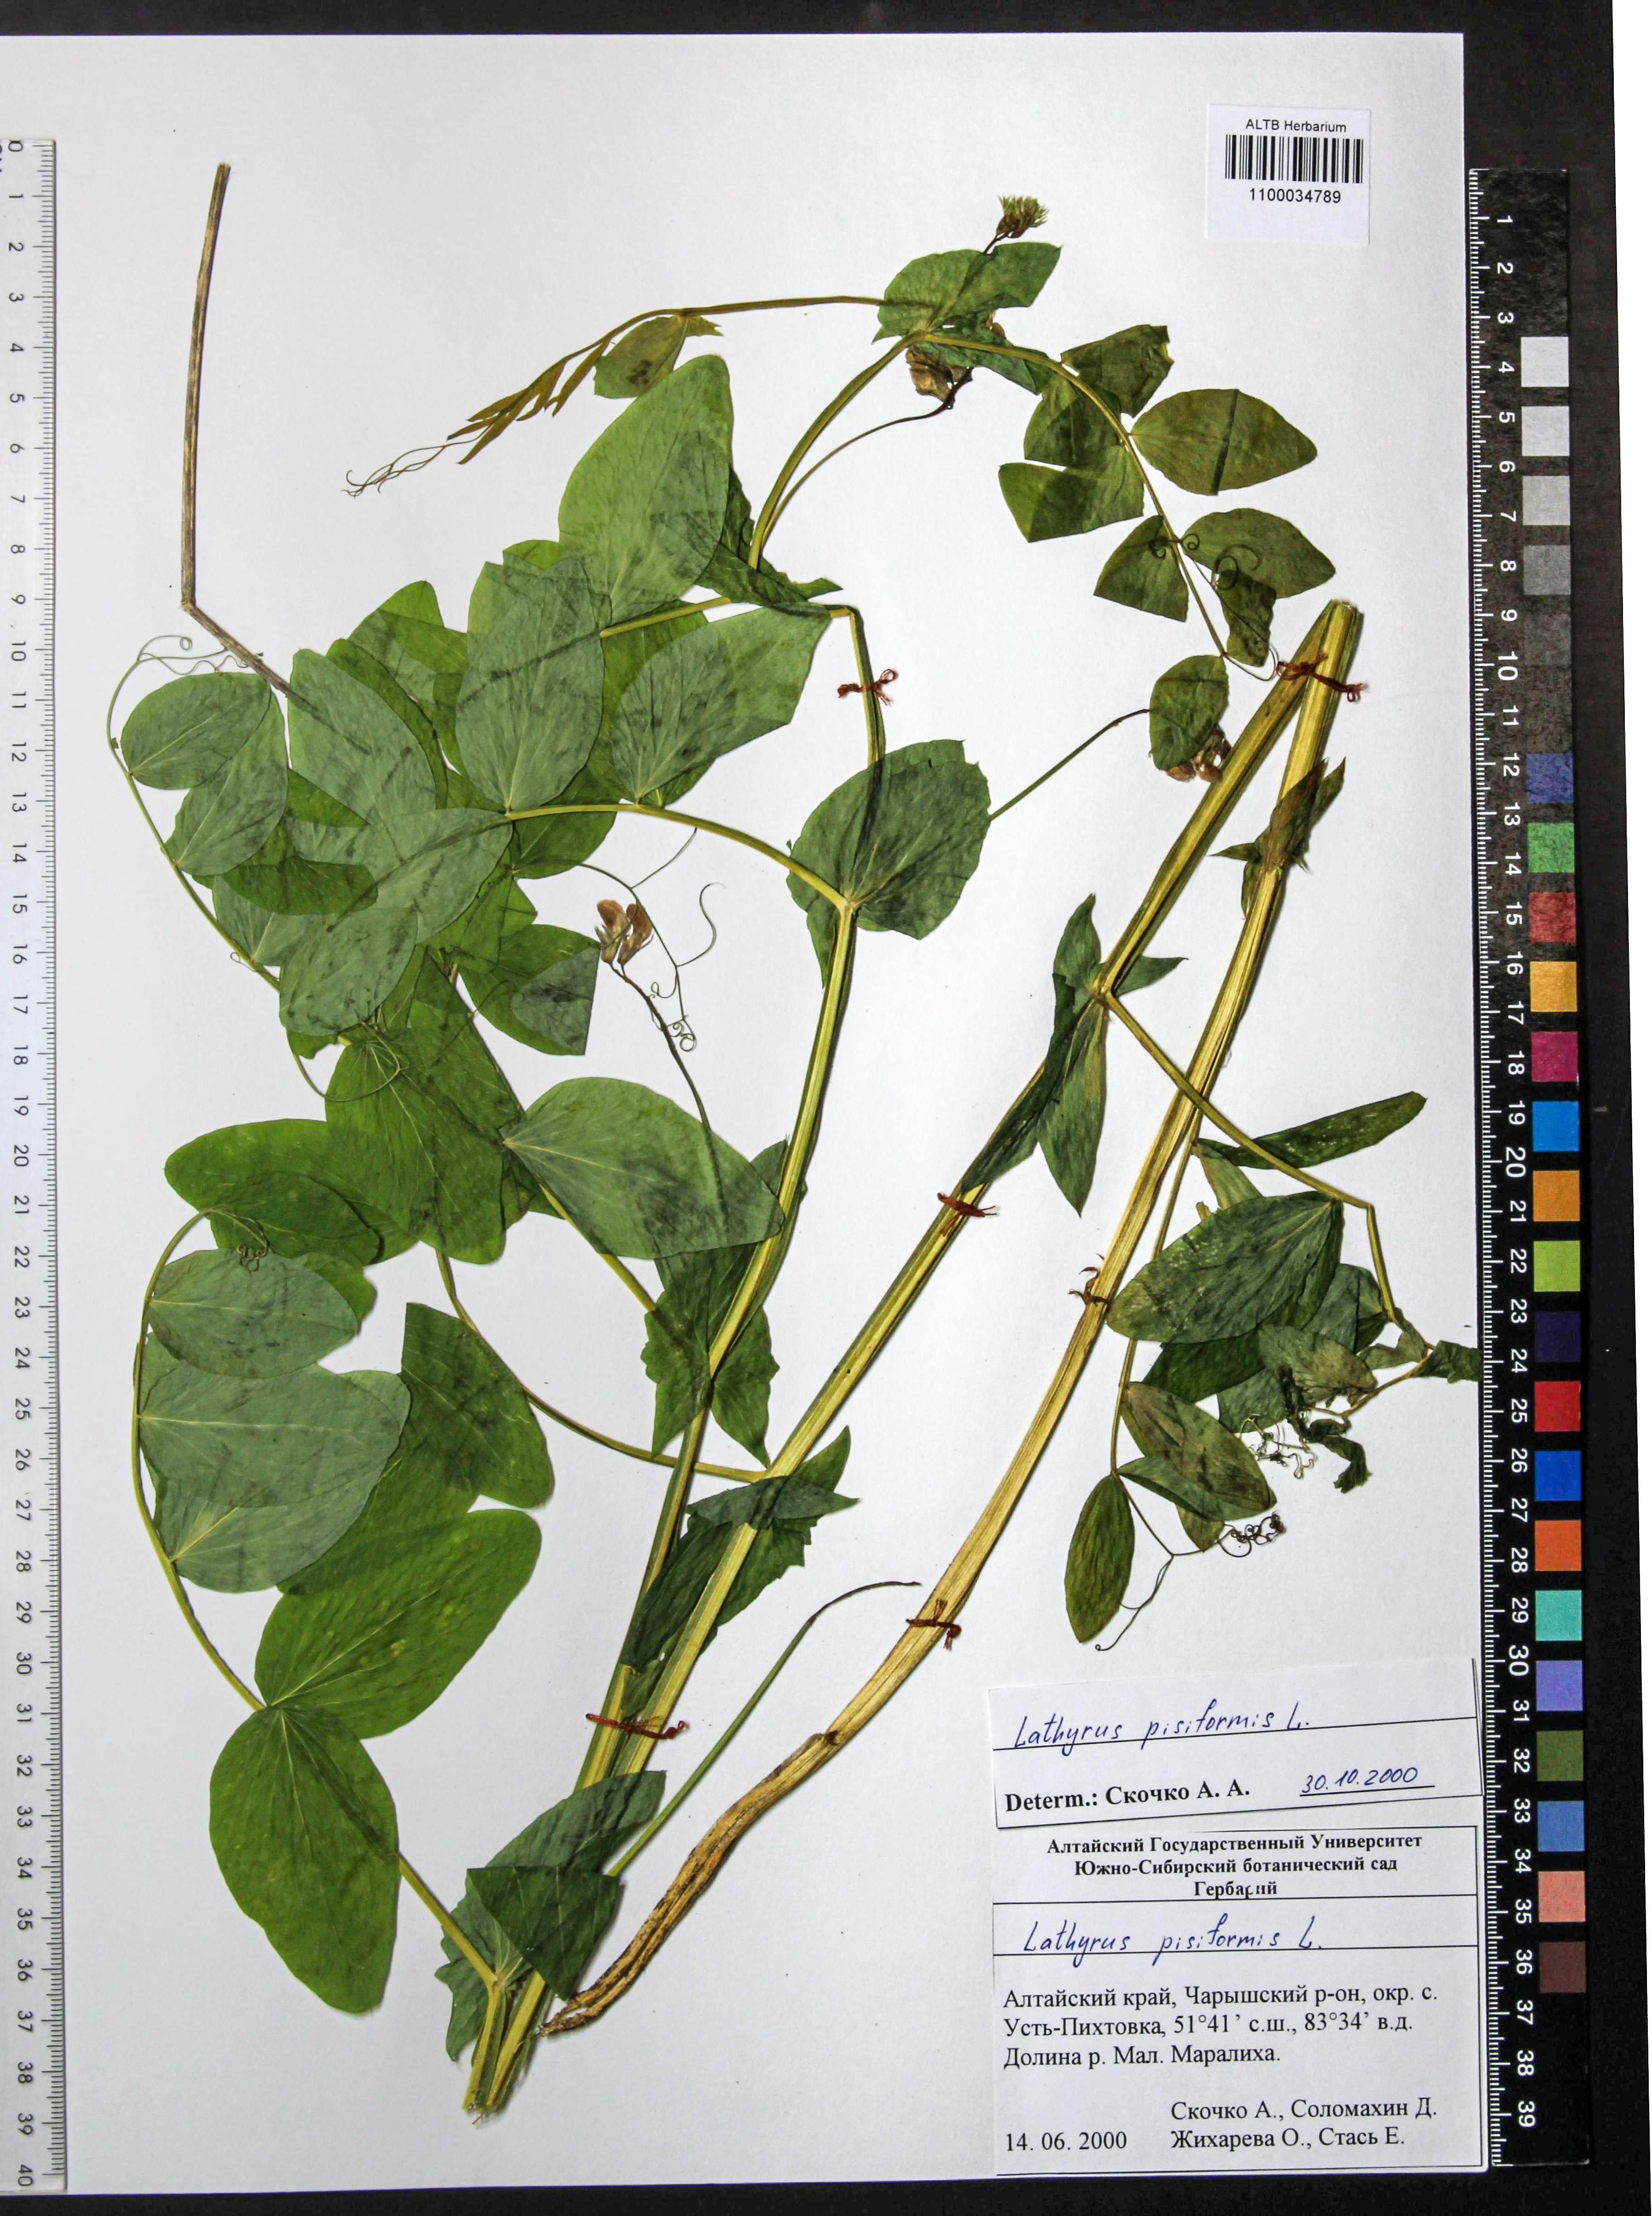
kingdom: Plantae
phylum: Tracheophyta
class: Magnoliopsida
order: Fabales
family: Fabaceae
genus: Lathyrus
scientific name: Lathyrus pisiformis
